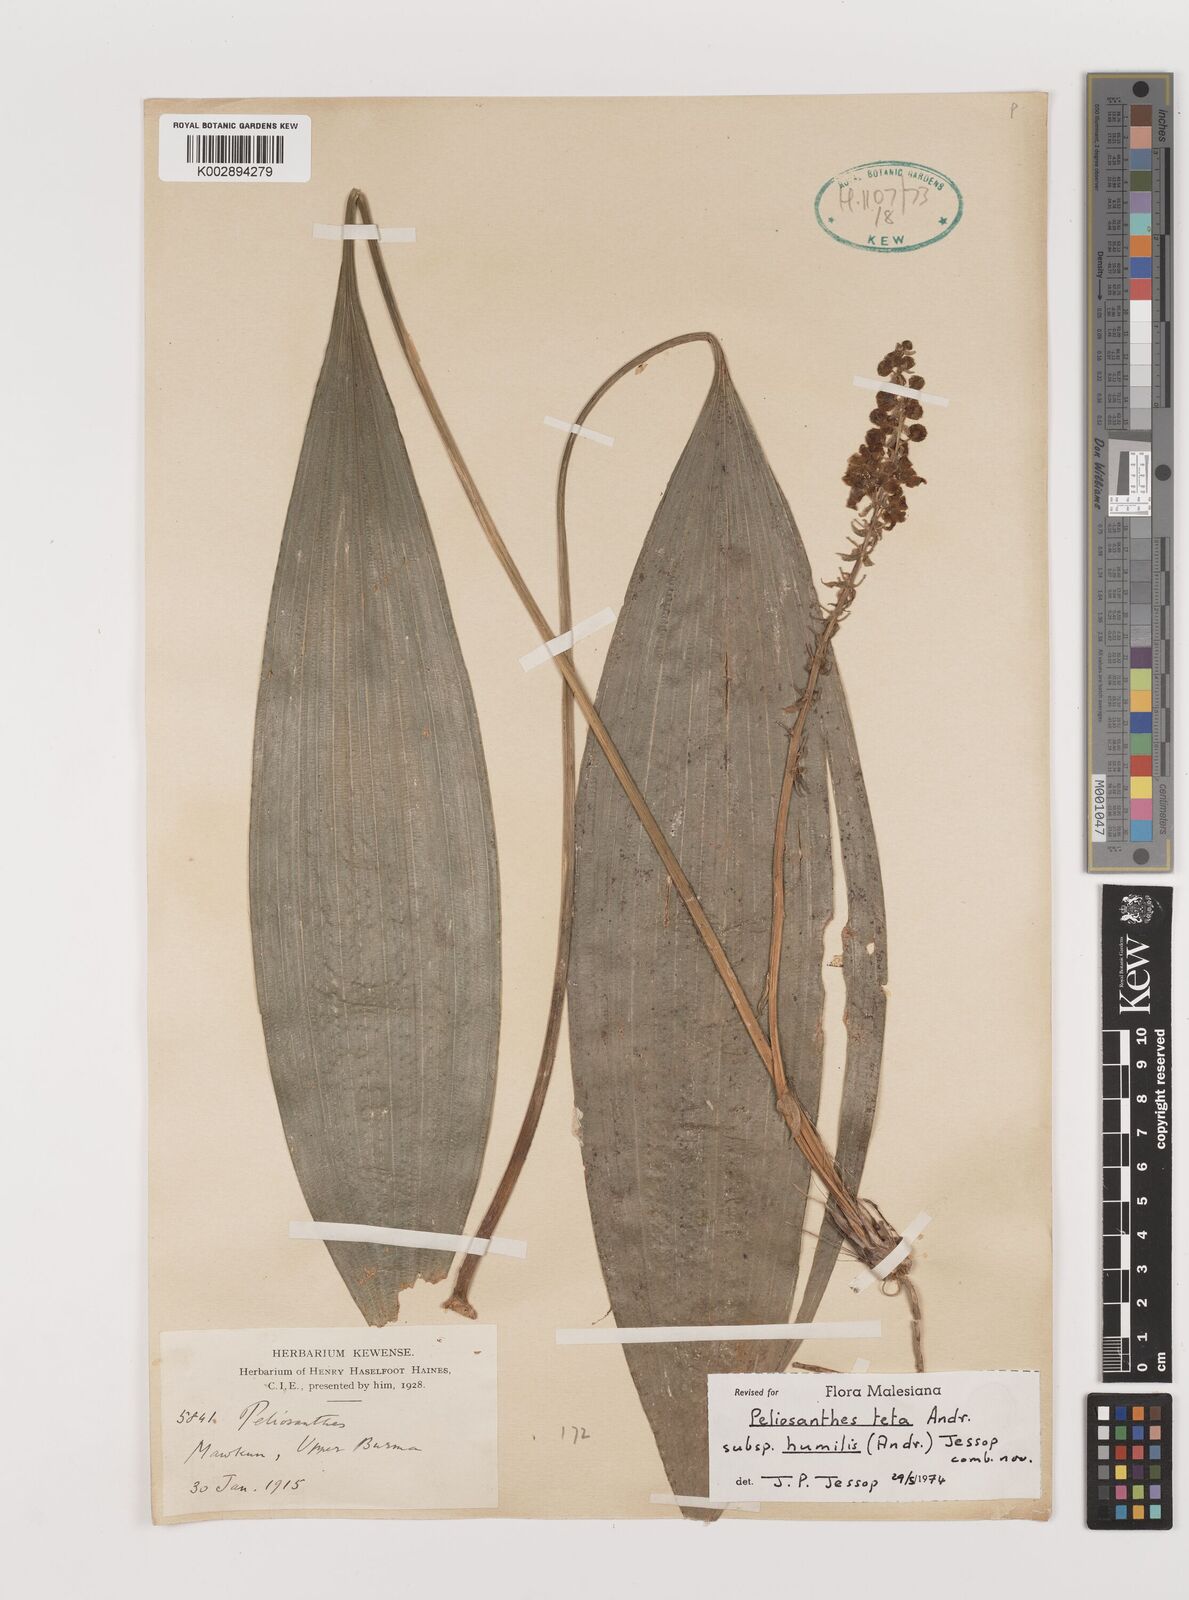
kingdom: Plantae
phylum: Tracheophyta
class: Liliopsida
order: Asparagales
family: Asparagaceae
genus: Peliosanthes
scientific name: Peliosanthes teta
